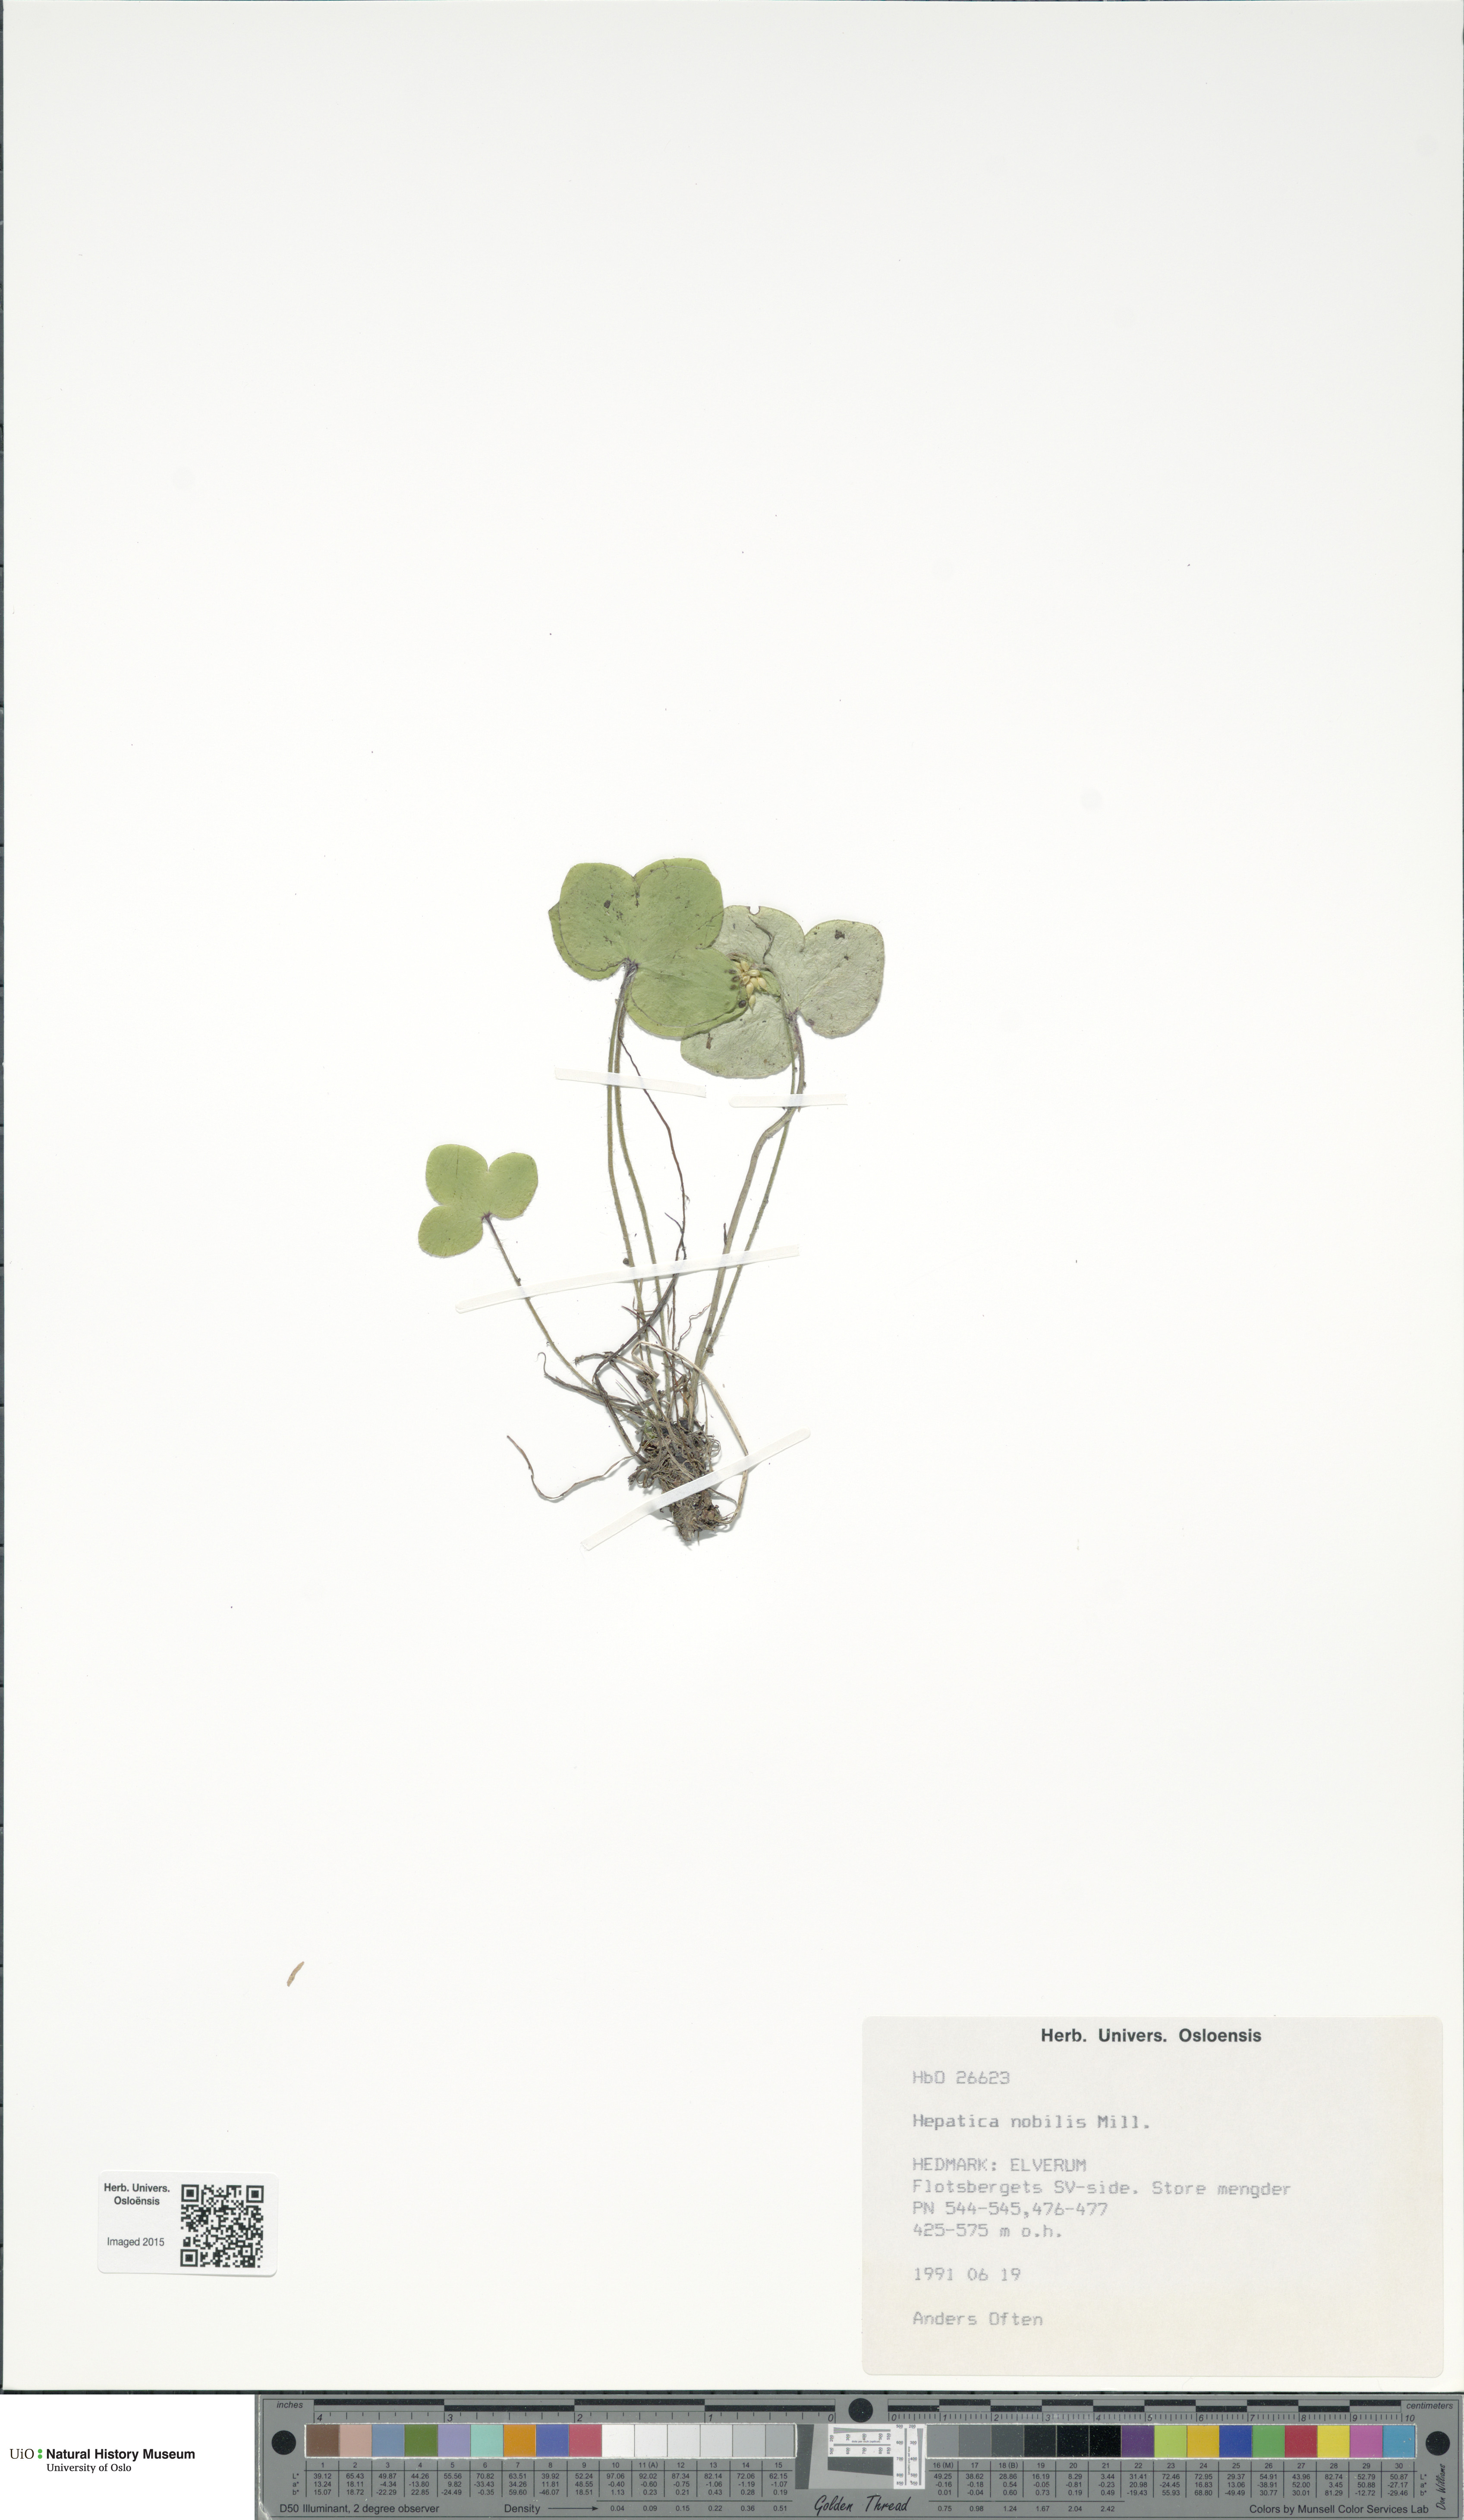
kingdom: Plantae
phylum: Tracheophyta
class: Magnoliopsida
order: Ranunculales
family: Ranunculaceae
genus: Hepatica
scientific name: Hepatica nobilis
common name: Liverleaf
